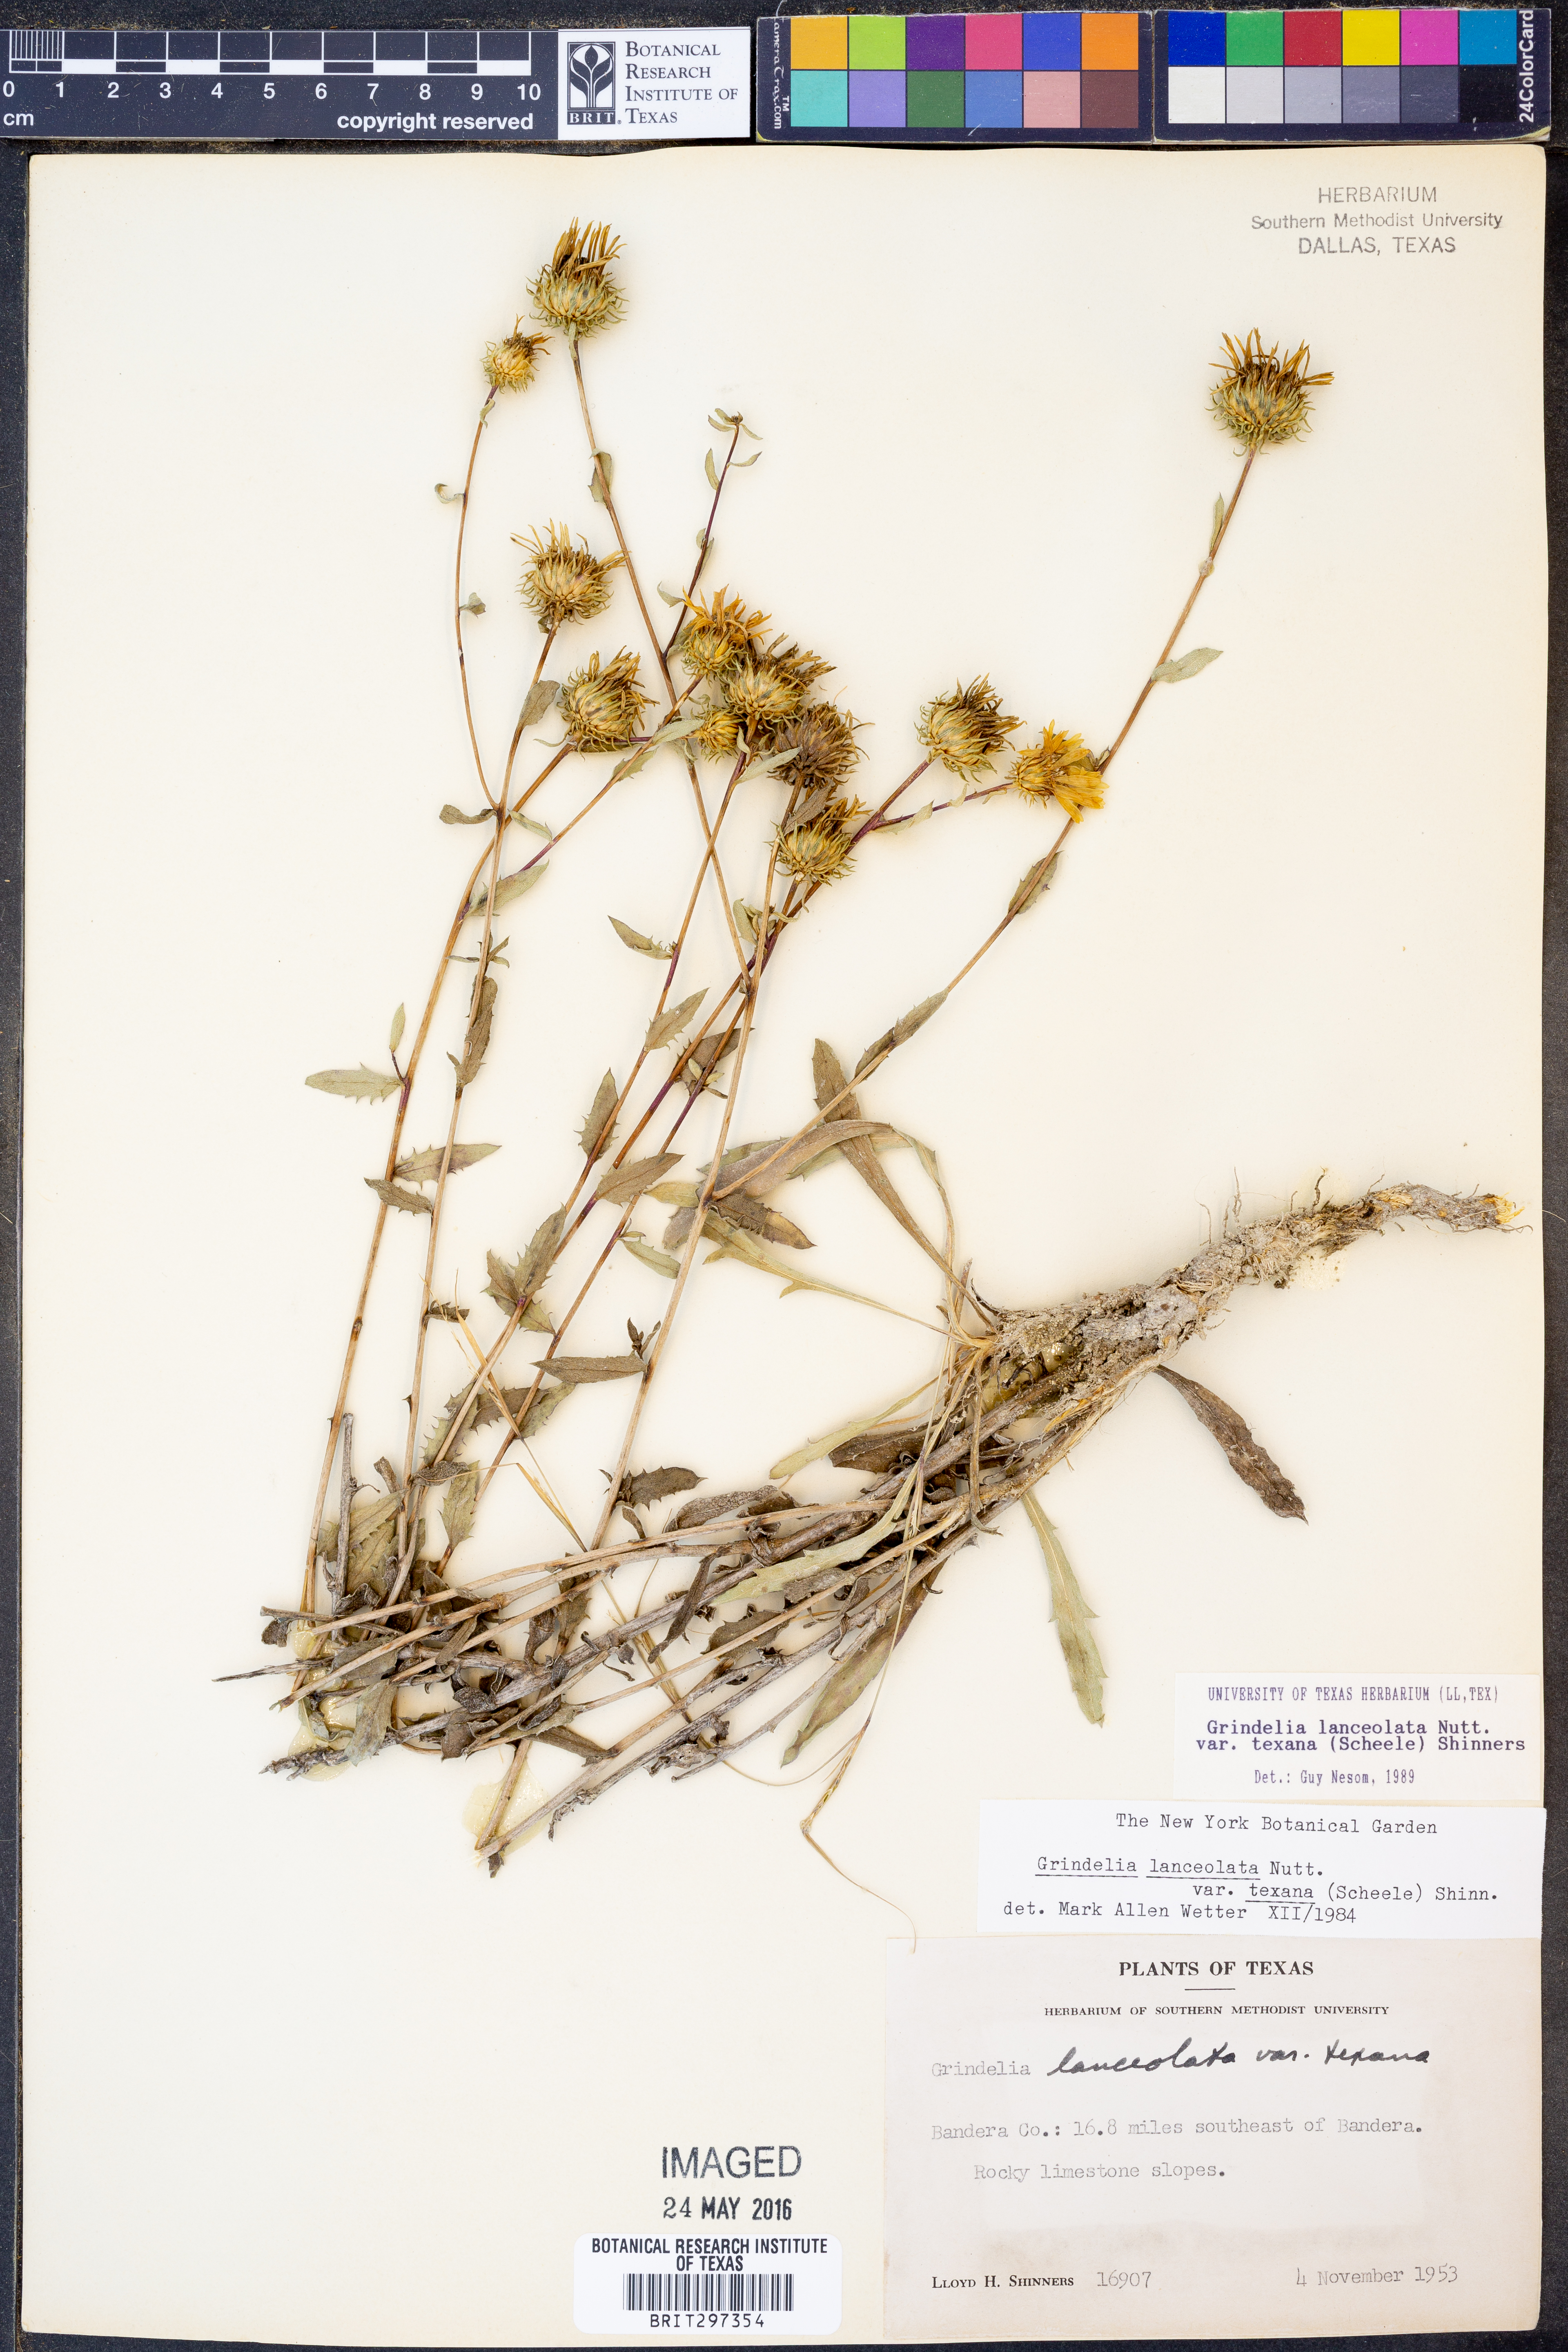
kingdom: Plantae
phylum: Tracheophyta
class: Magnoliopsida
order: Asterales
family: Asteraceae
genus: Grindelia
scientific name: Grindelia texana
